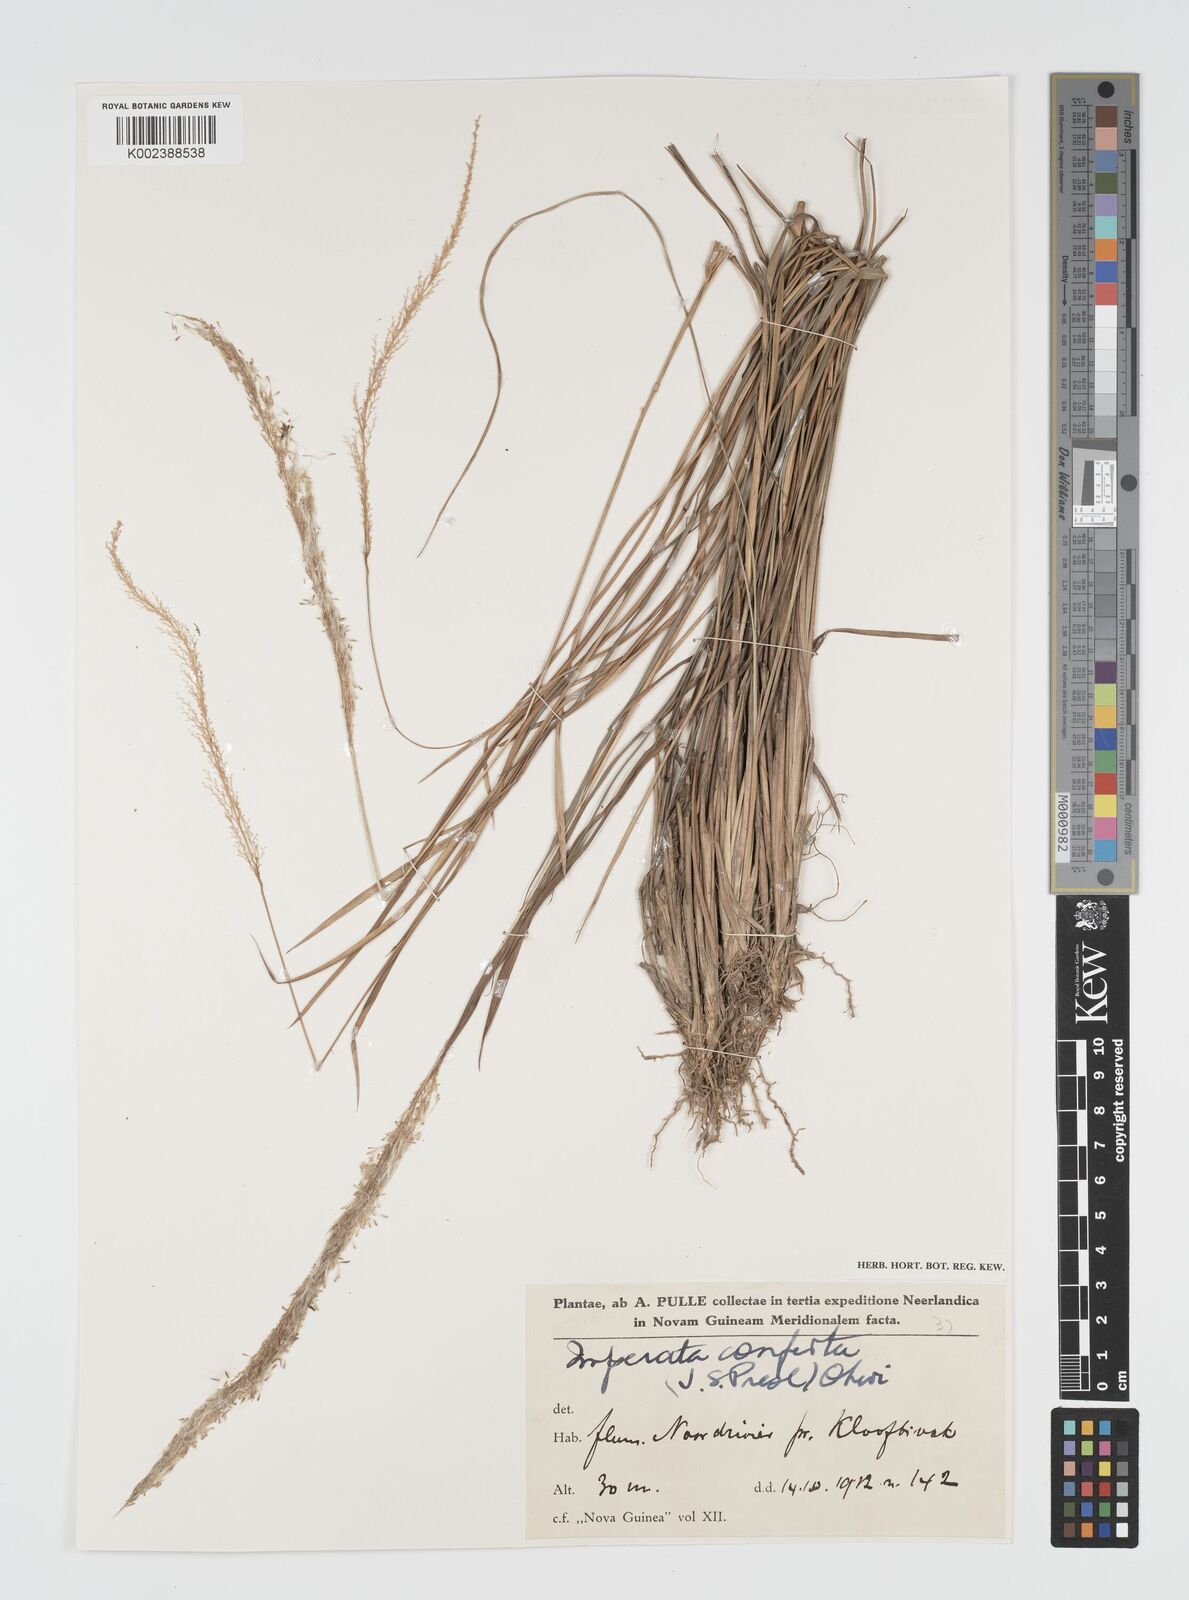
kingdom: Plantae
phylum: Tracheophyta
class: Liliopsida
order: Poales
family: Poaceae
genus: Imperata
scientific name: Imperata conferta
